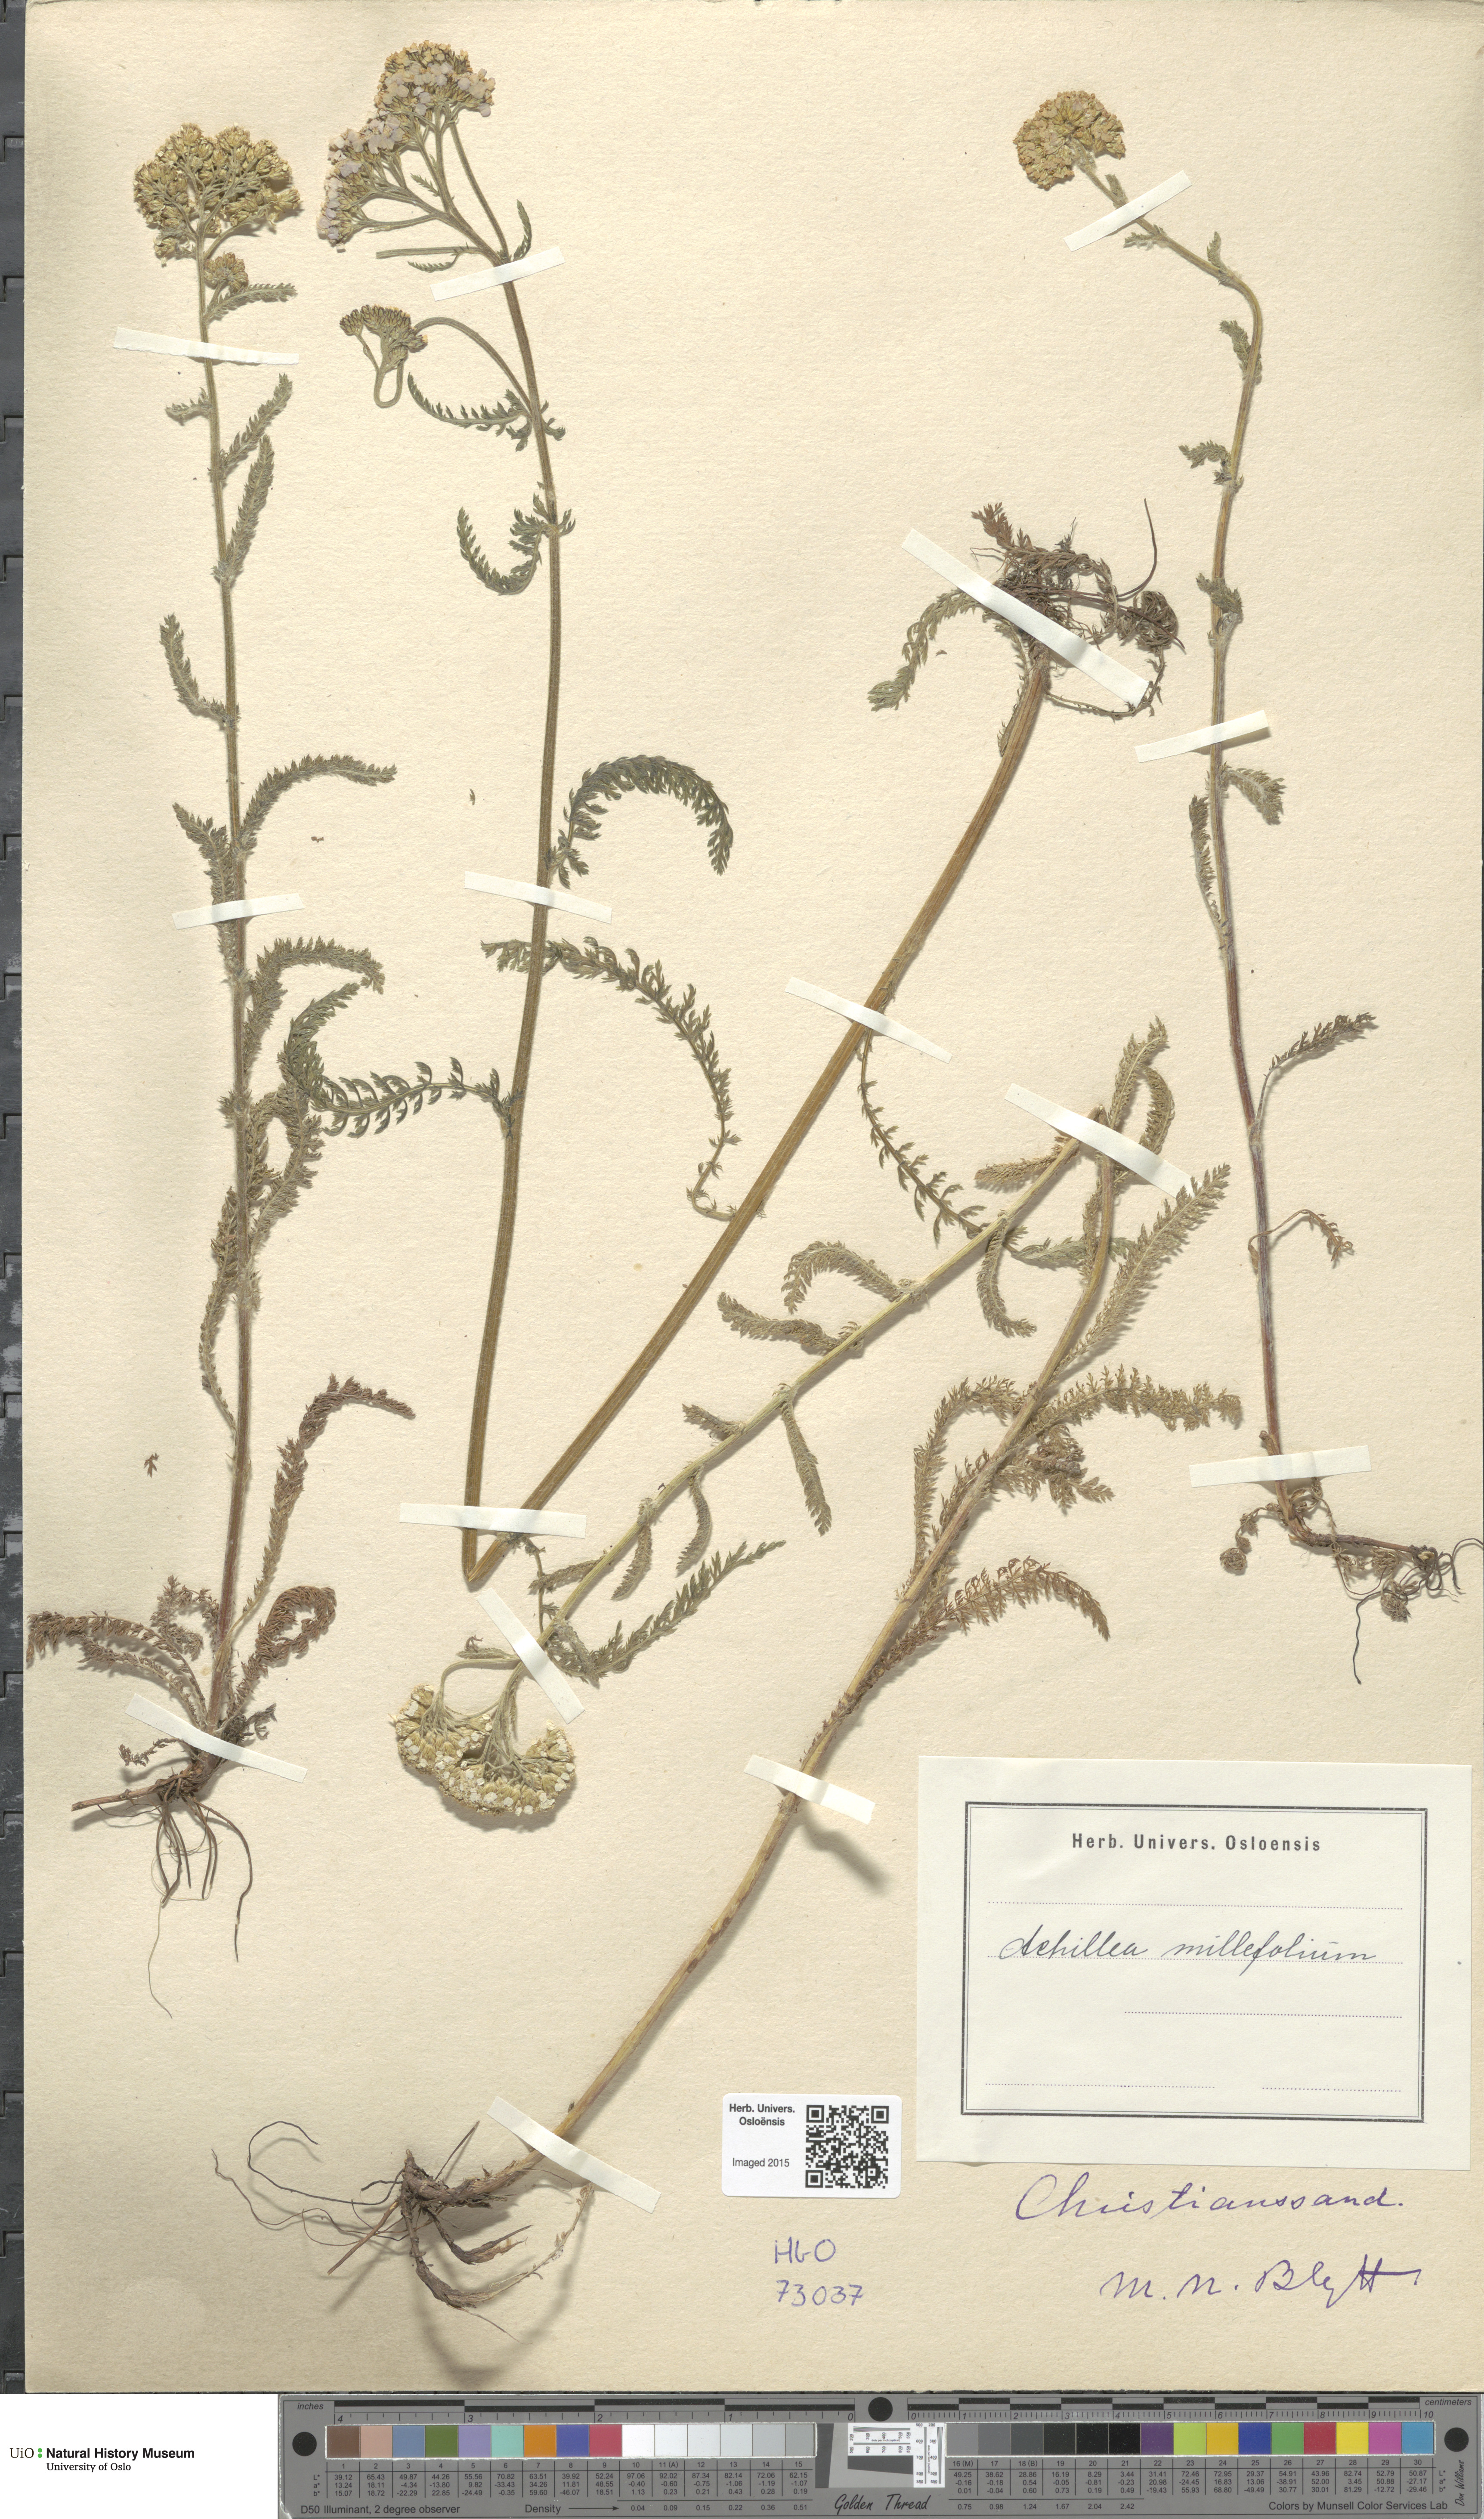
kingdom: Plantae
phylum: Tracheophyta
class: Magnoliopsida
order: Asterales
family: Asteraceae
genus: Achillea
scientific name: Achillea millefolium
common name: Yarrow
